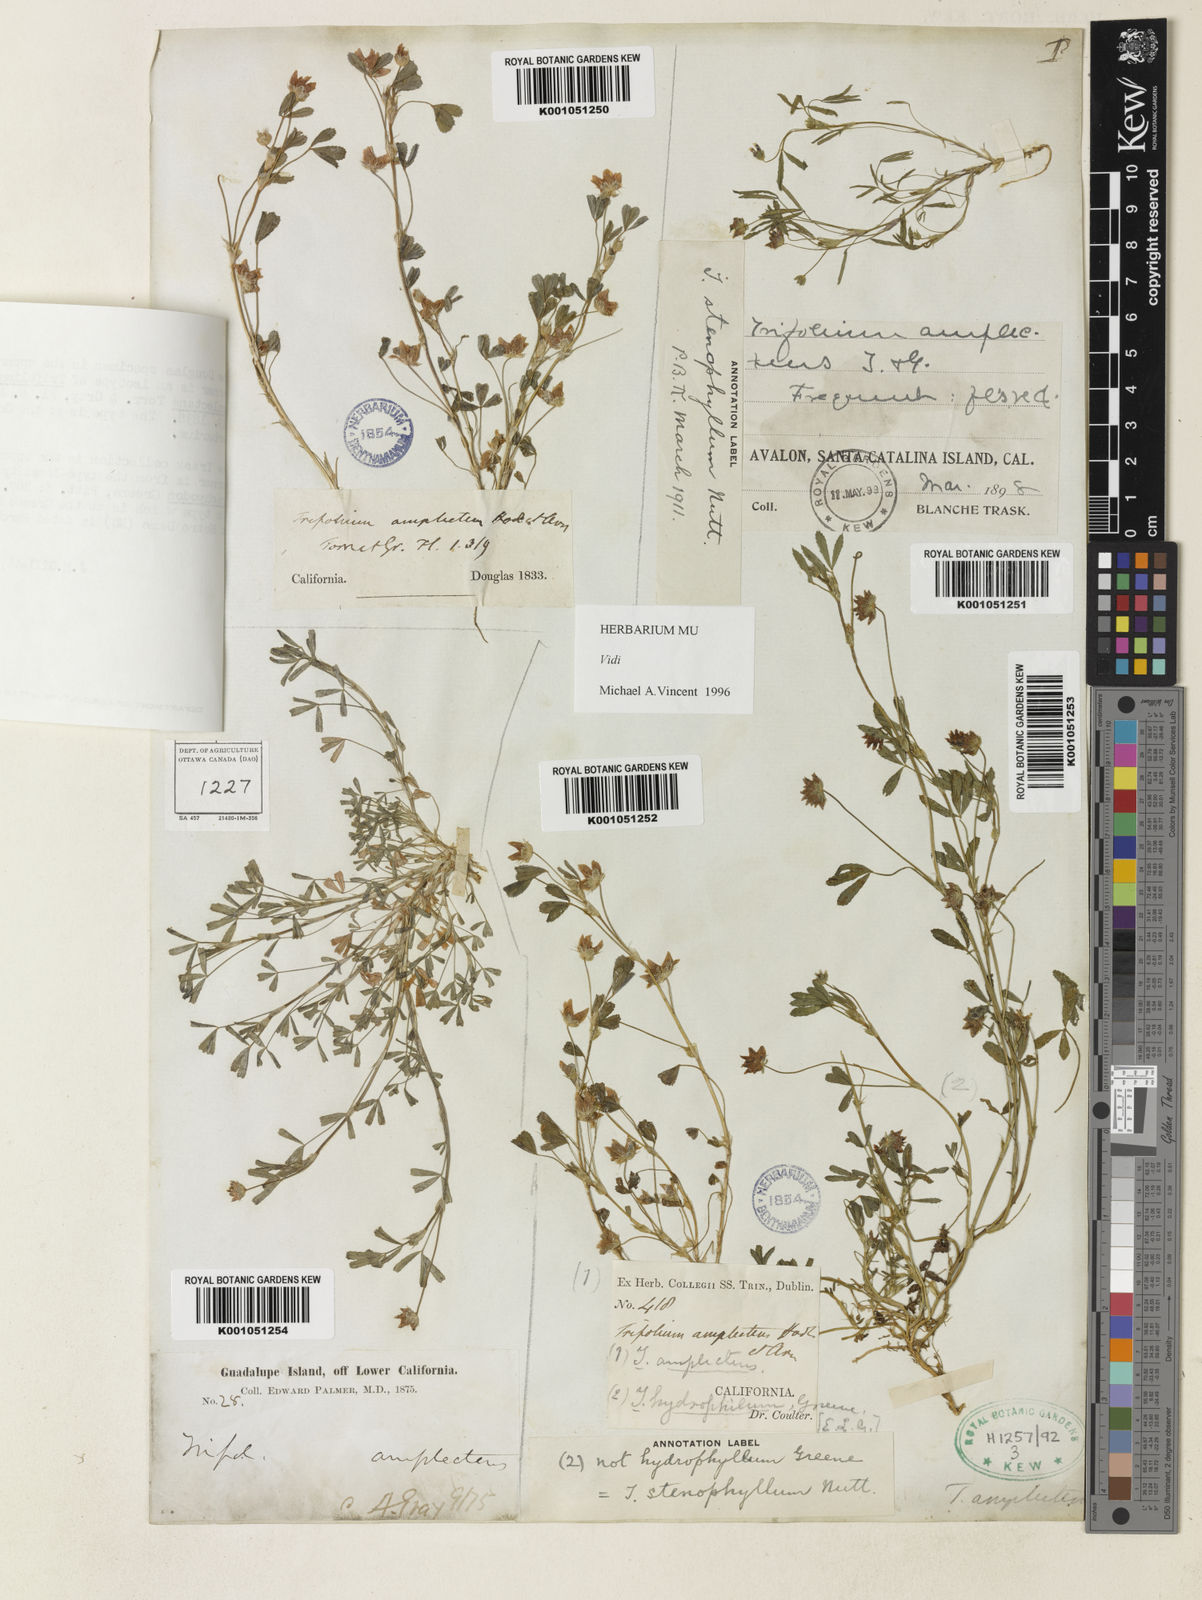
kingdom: Plantae
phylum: Tracheophyta
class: Magnoliopsida
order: Fabales
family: Fabaceae
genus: Trifolium
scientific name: Trifolium depauperatum
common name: Poverty clover
